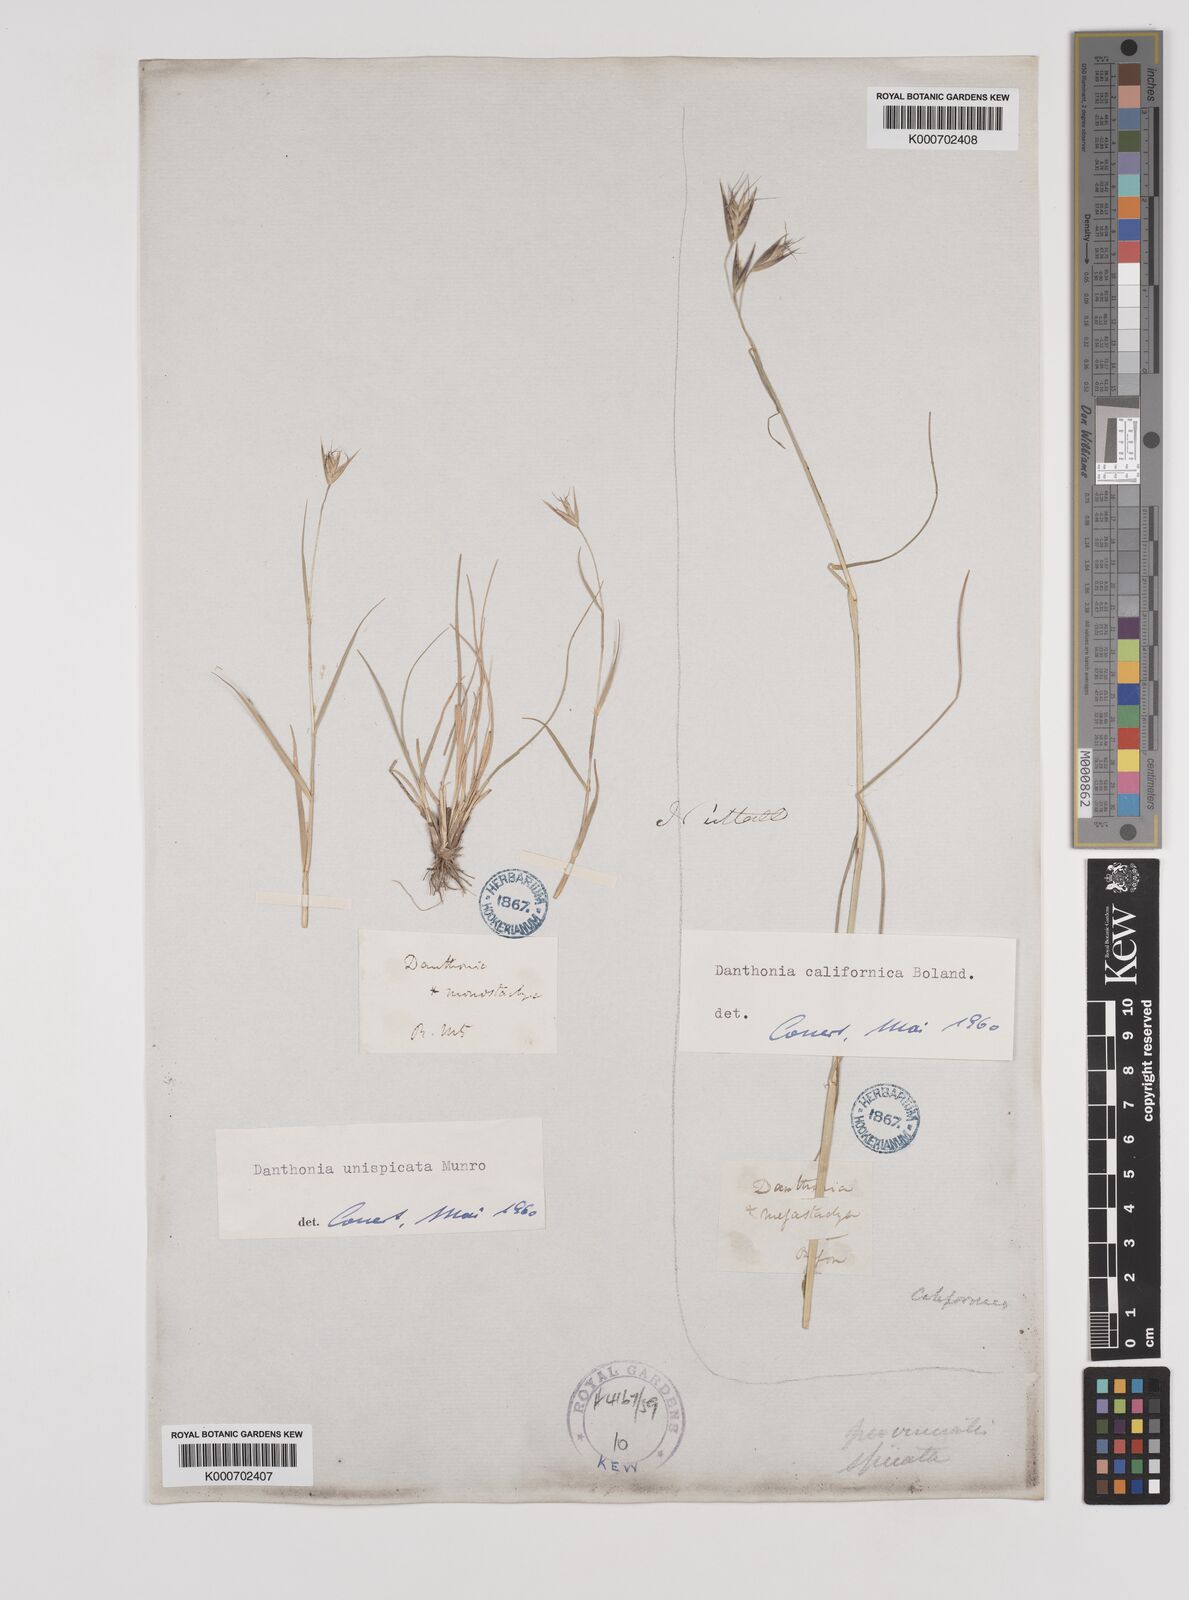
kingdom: Plantae
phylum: Tracheophyta
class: Liliopsida
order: Poales
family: Poaceae
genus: Danthonia
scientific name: Danthonia unispicata
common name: Few-flowered oatgrass
